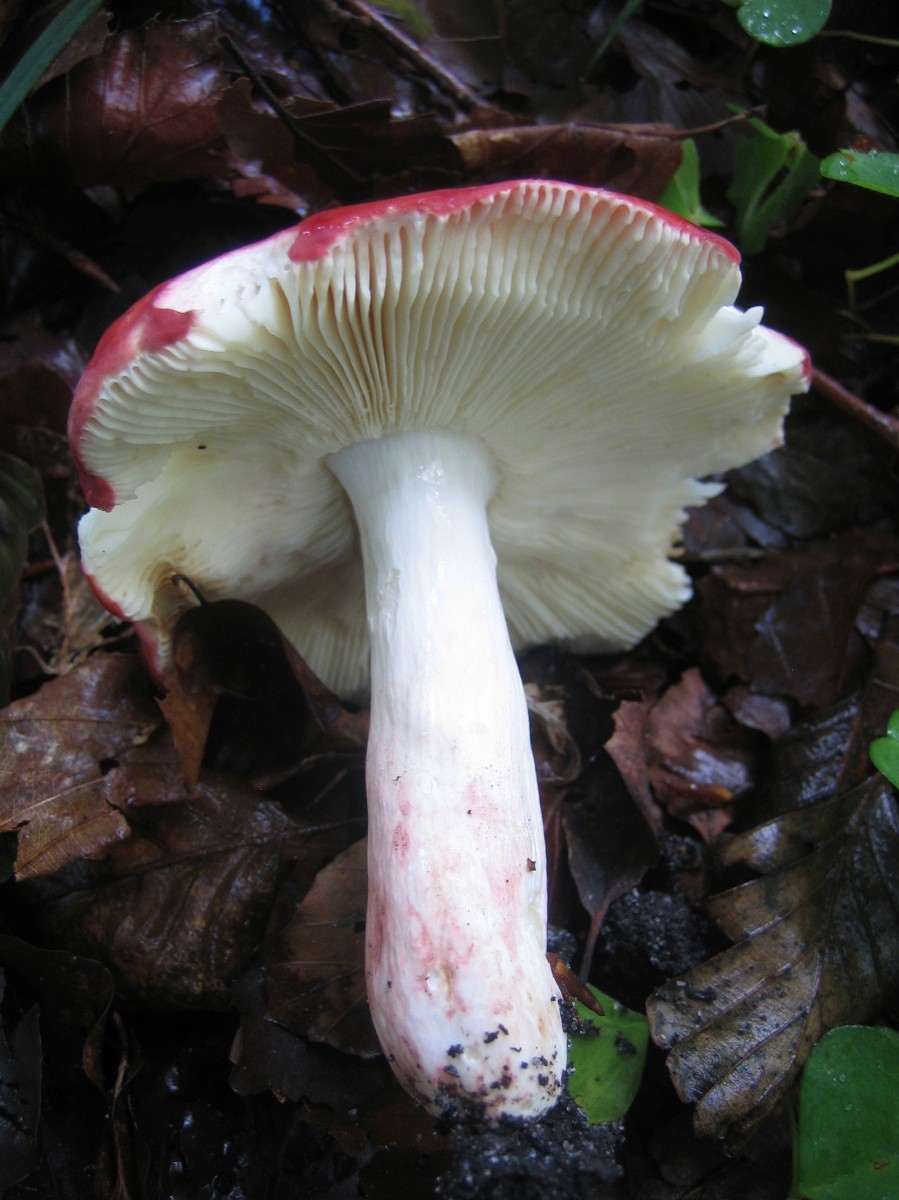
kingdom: Fungi
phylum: Basidiomycota
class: Agaricomycetes
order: Russulales
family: Russulaceae
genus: Russula
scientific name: Russula rosea
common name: fastkødet skørhat
